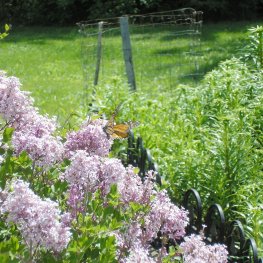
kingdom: Animalia
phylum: Arthropoda
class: Insecta
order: Lepidoptera
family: Nymphalidae
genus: Danaus
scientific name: Danaus plexippus
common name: Monarch
